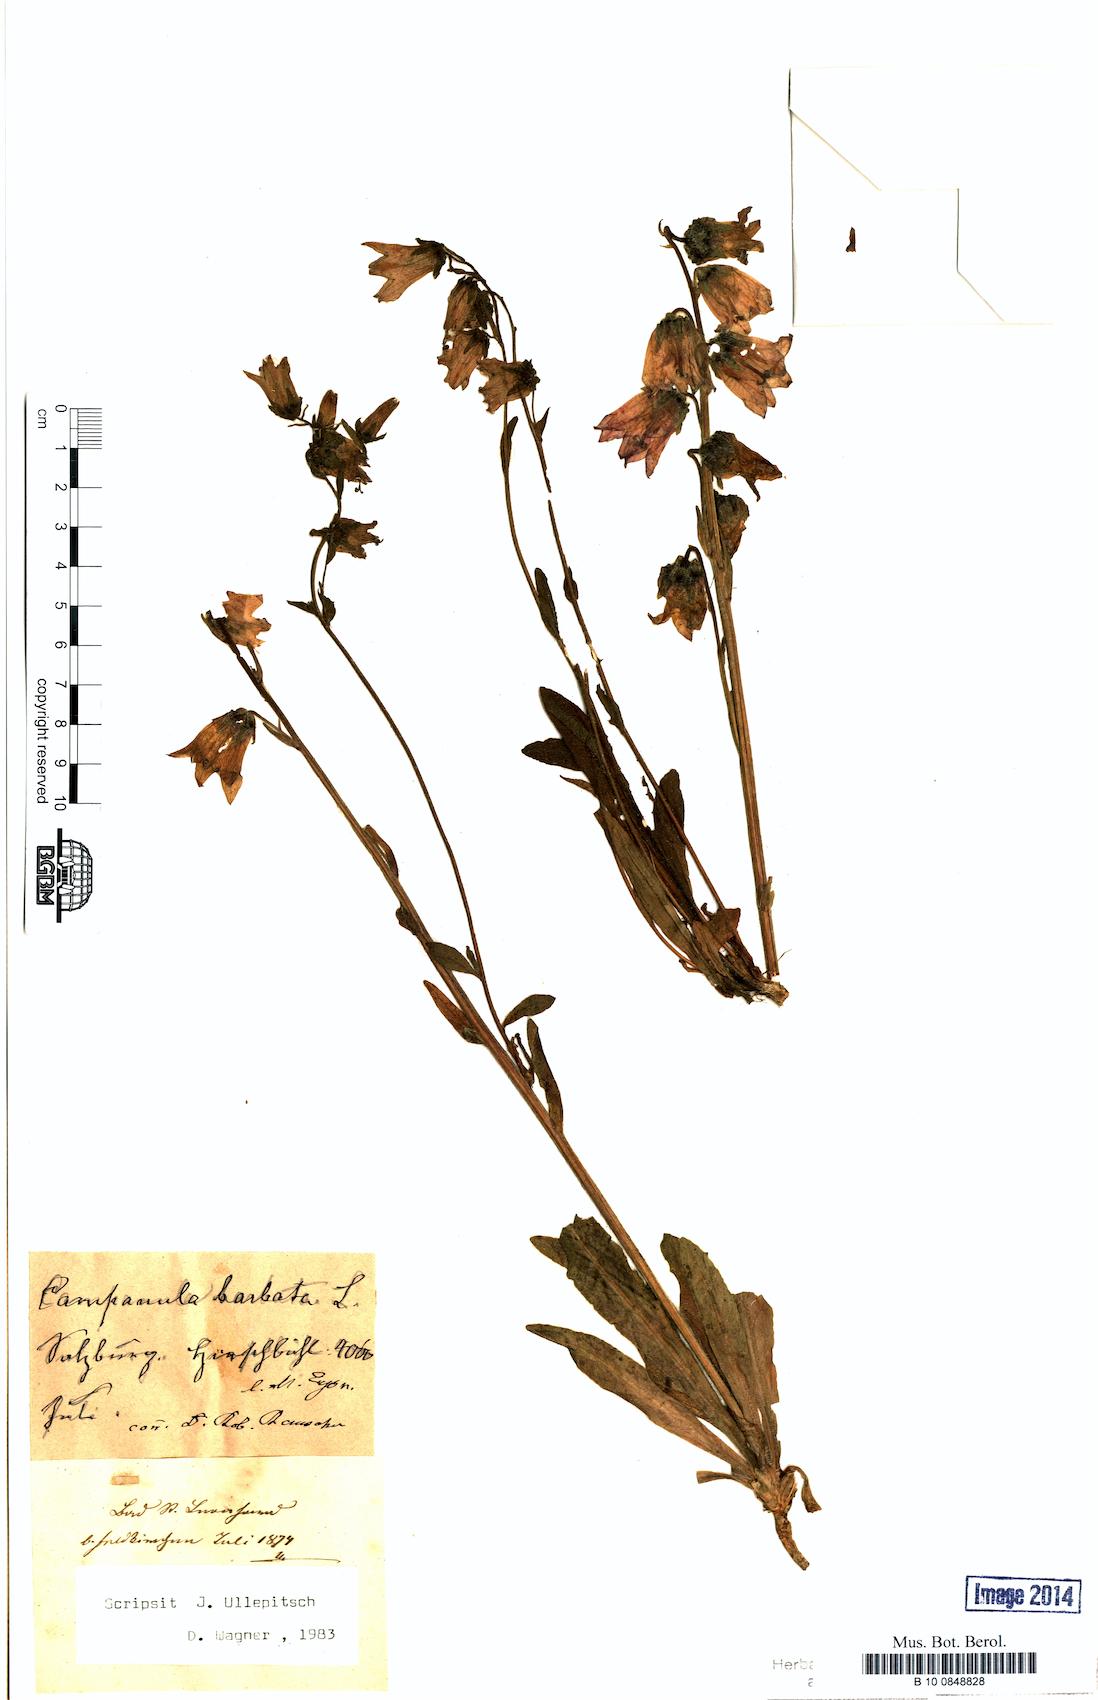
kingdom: Plantae
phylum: Tracheophyta
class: Magnoliopsida
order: Asterales
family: Campanulaceae
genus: Campanula
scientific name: Campanula barbata
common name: Bearded bellflower
